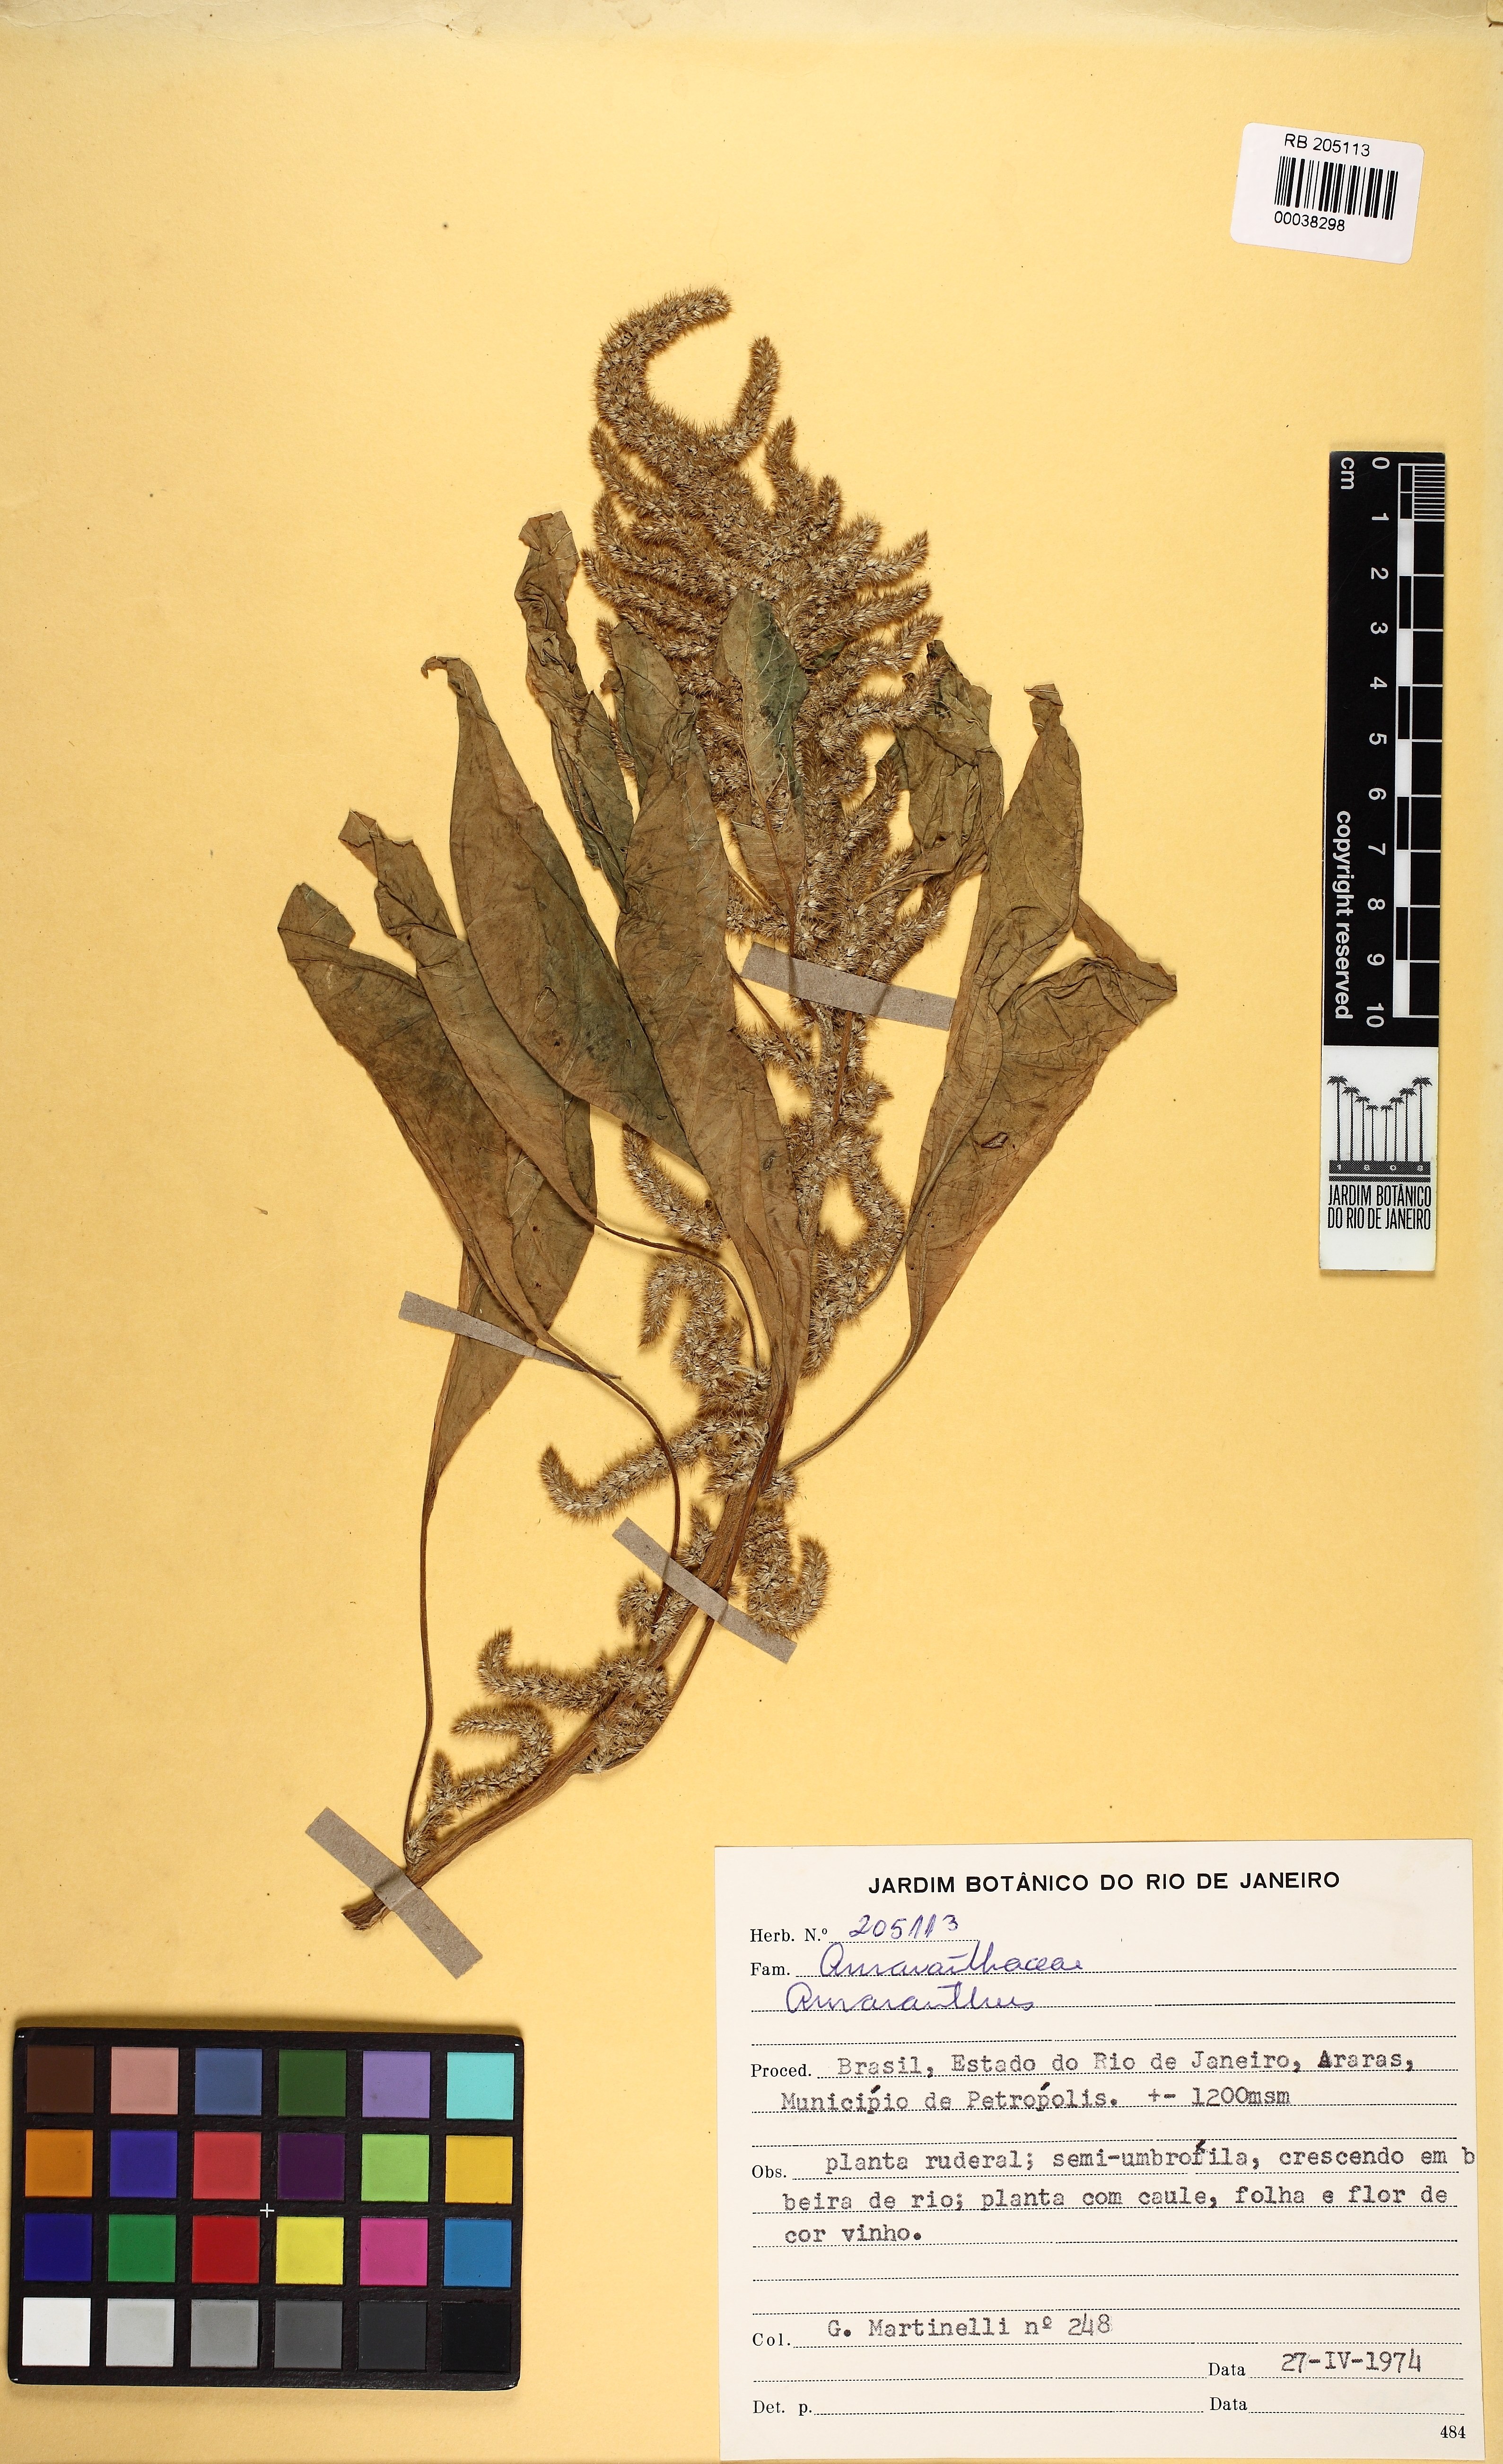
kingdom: Plantae
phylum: Tracheophyta
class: Magnoliopsida
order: Caryophyllales
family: Amaranthaceae
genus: Amaranthus
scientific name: Amaranthus
